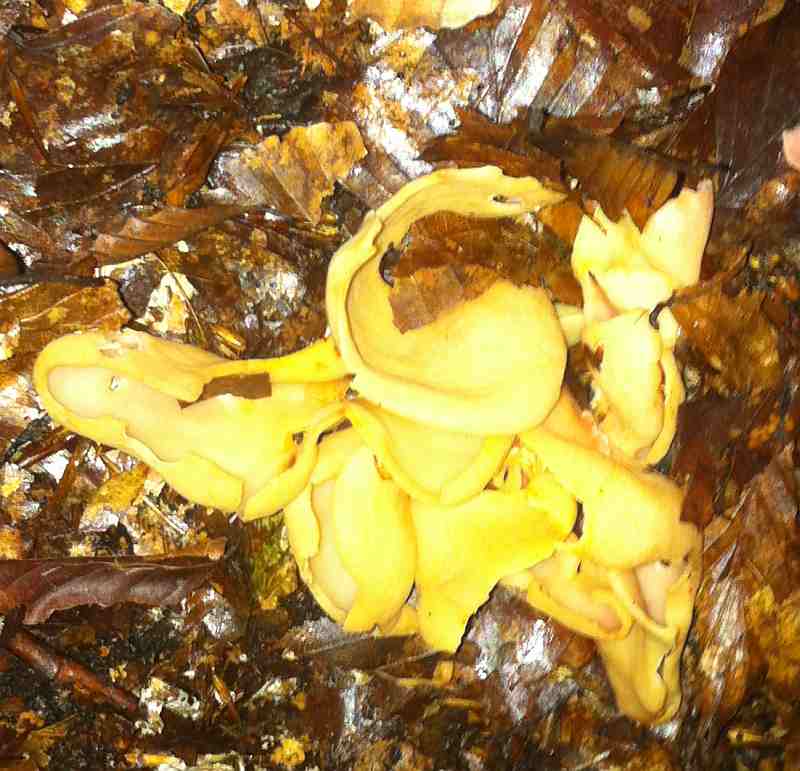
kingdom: Fungi
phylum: Ascomycota
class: Pezizomycetes
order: Pezizales
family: Otideaceae
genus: Otidea
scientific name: Otidea onotica
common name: æsel-ørebæger
